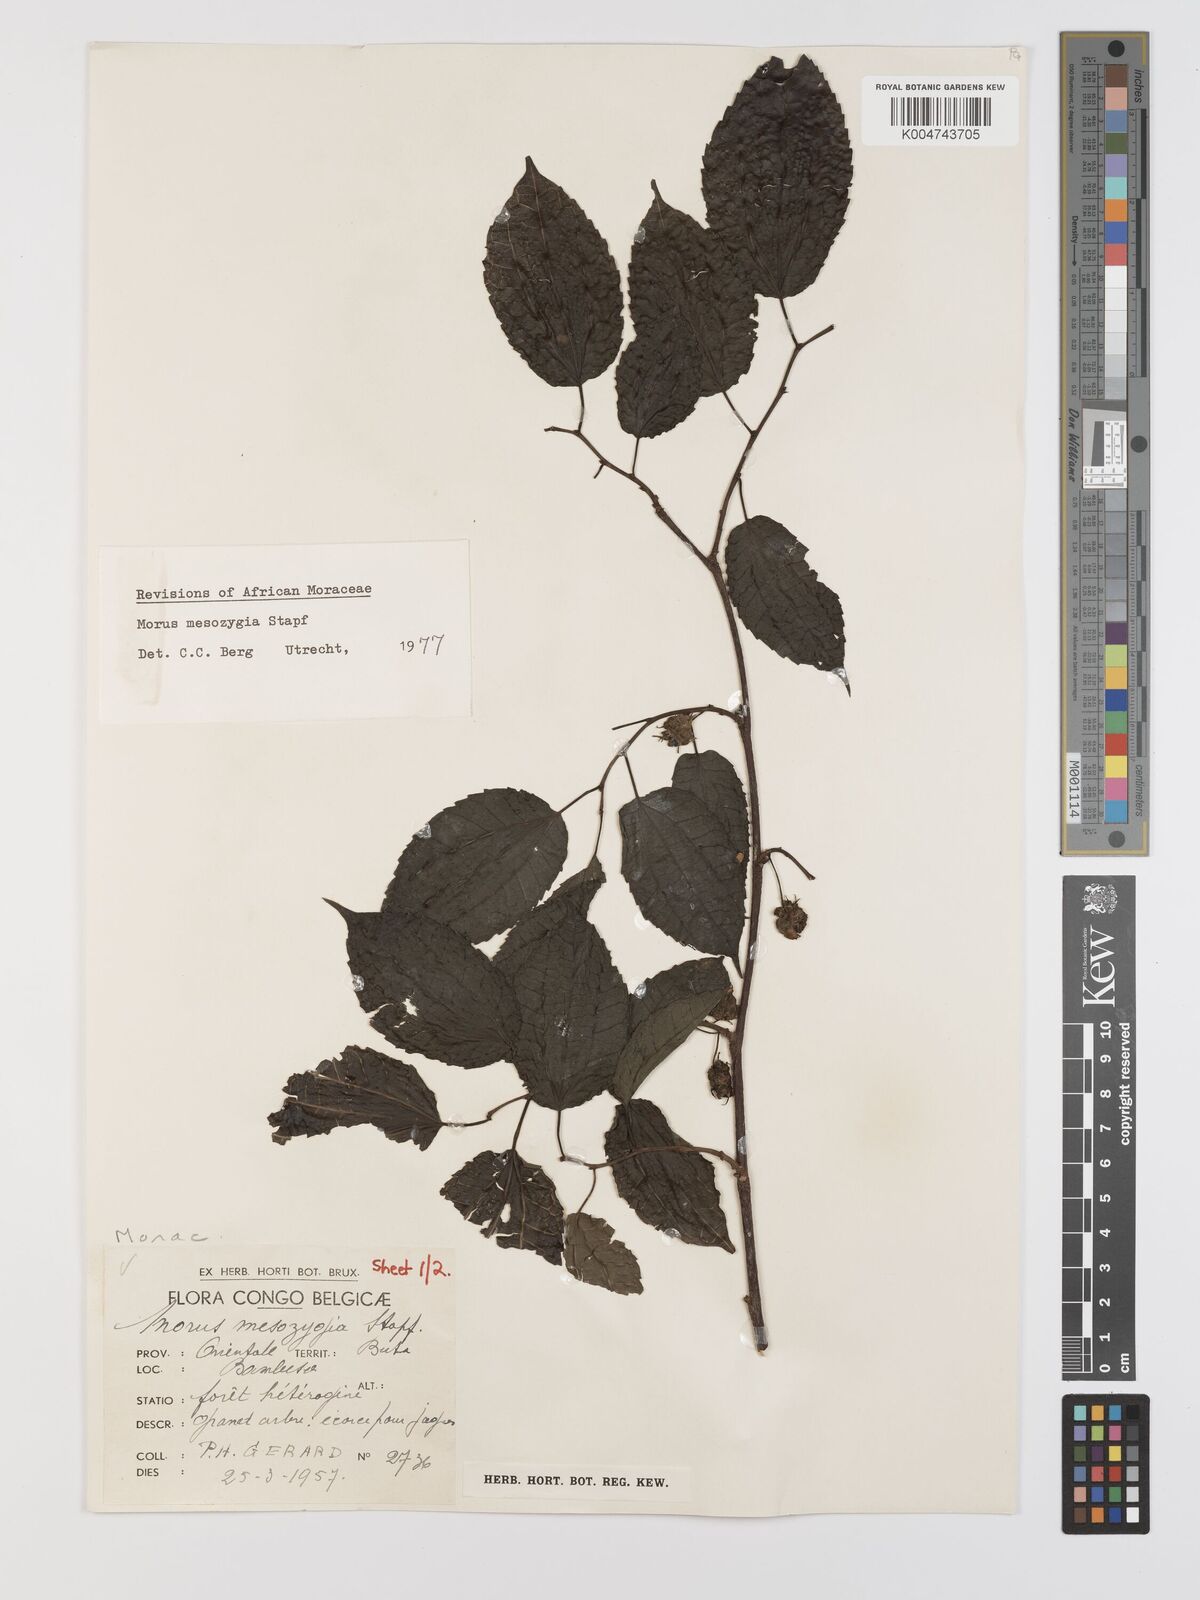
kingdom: Plantae
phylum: Tracheophyta
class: Magnoliopsida
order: Rosales
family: Moraceae
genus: Afromorus
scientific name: Afromorus mesozygia
